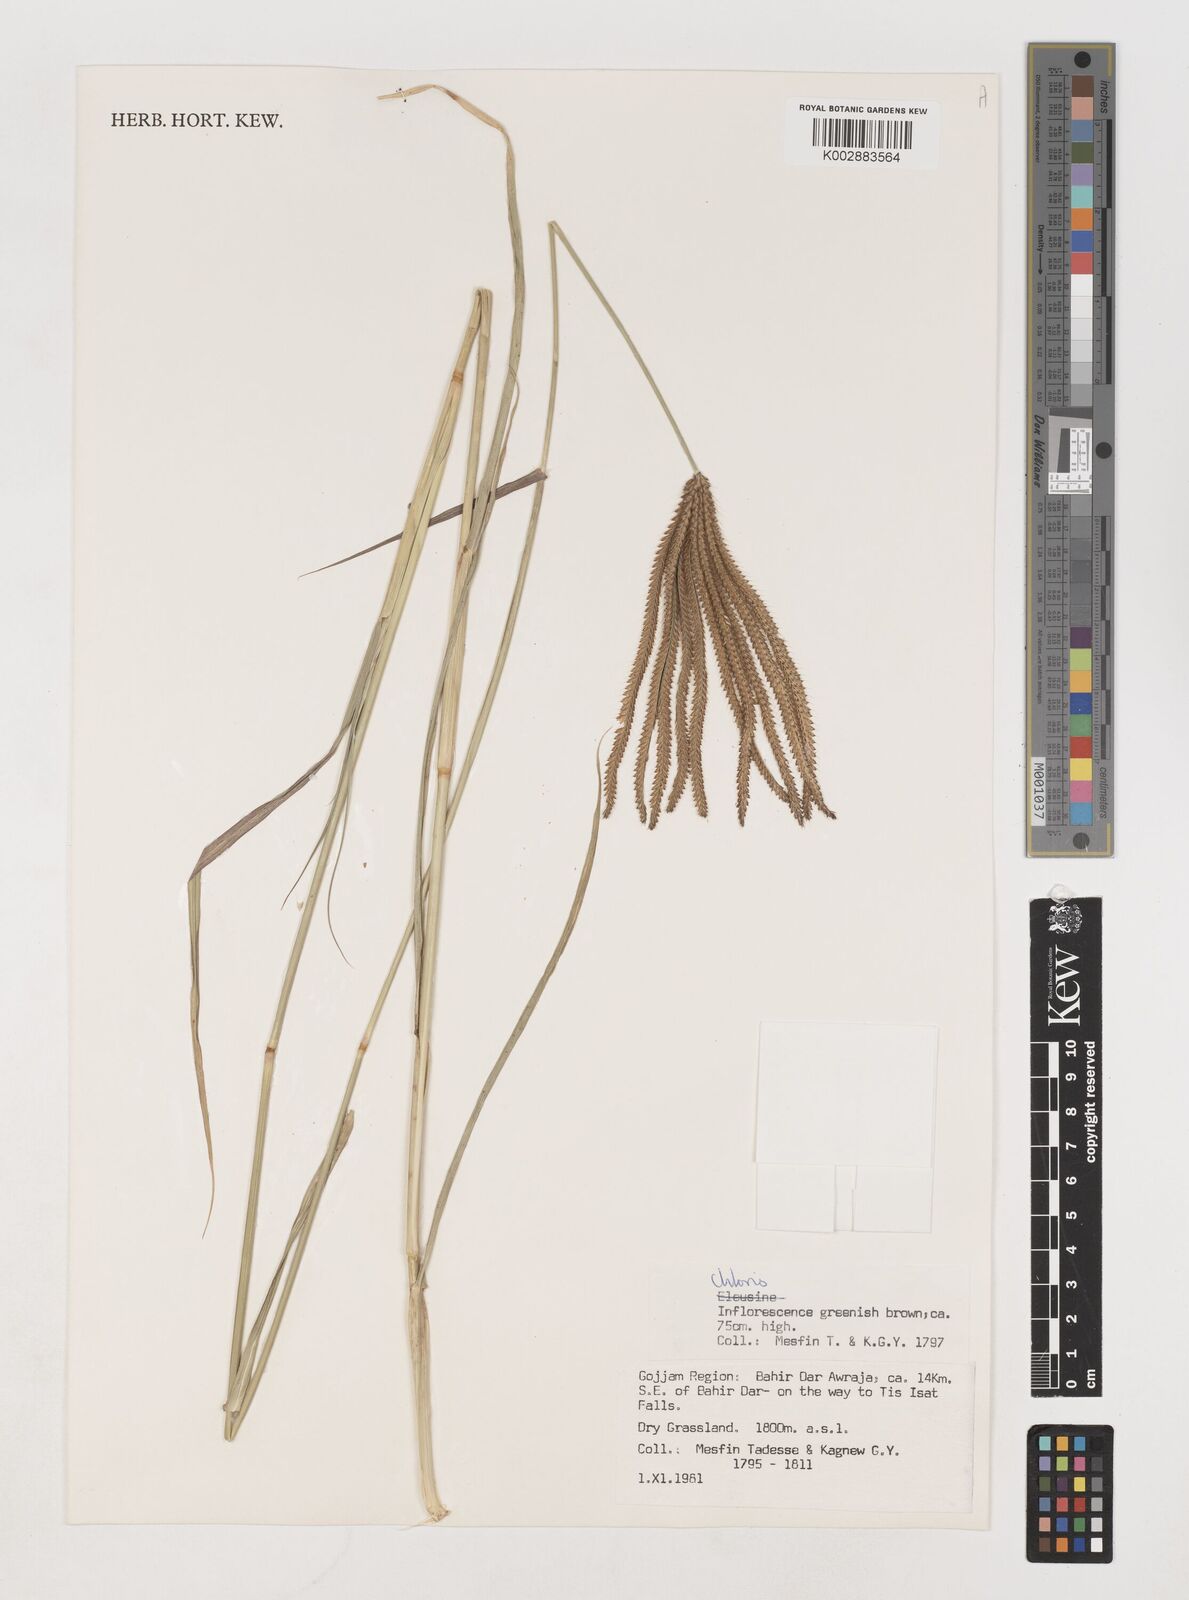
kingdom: Plantae
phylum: Tracheophyta
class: Liliopsida
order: Poales
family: Poaceae
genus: Chloris
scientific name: Chloris gayana
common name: Rhodes grass
